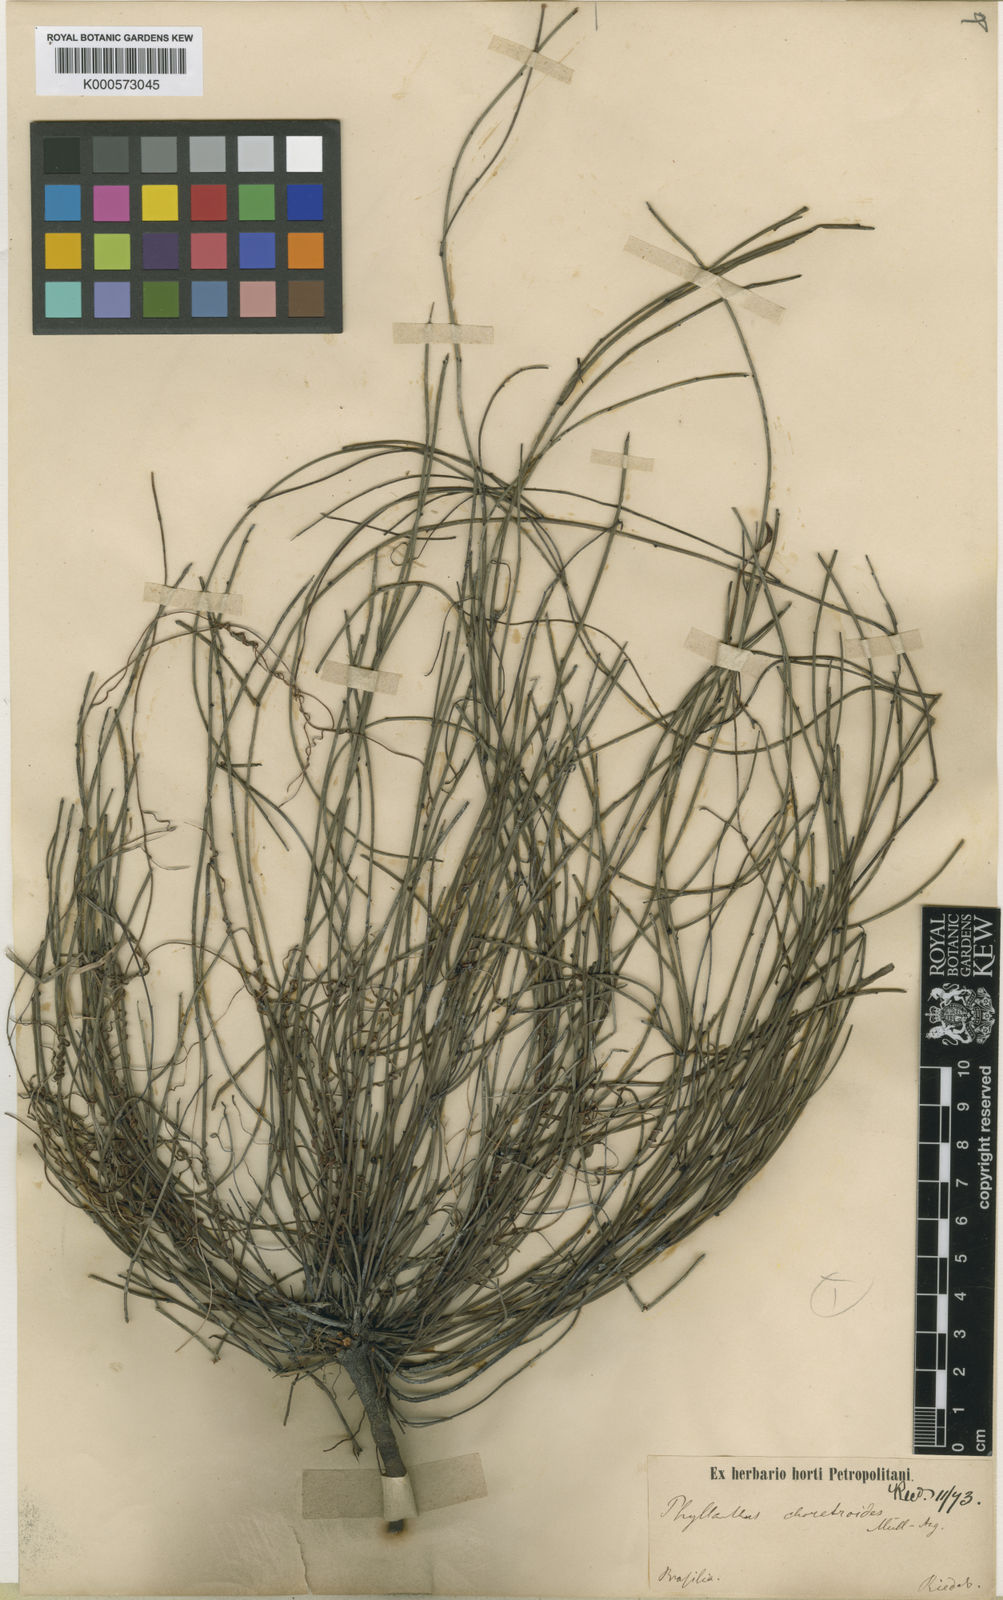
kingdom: Plantae
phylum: Tracheophyta
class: Magnoliopsida
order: Malpighiales
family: Phyllanthaceae
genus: Phyllanthus
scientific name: Phyllanthus
